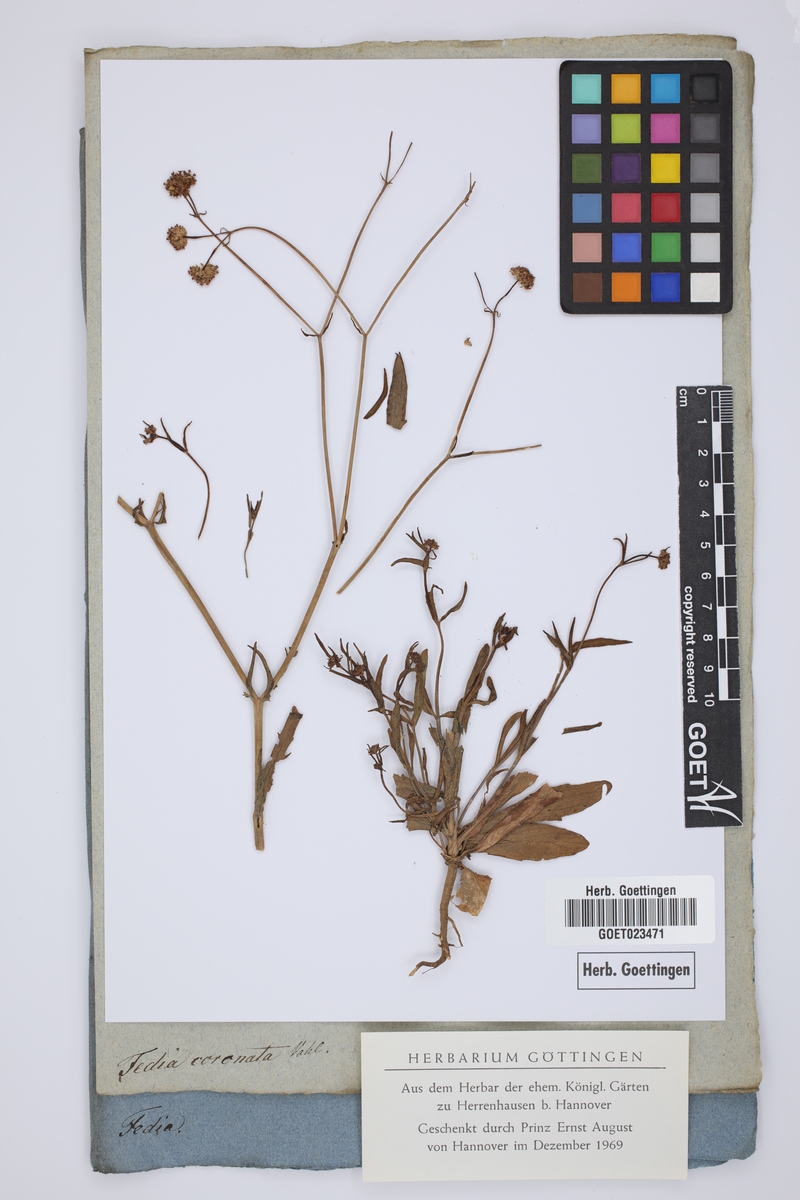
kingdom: Plantae
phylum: Tracheophyta
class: Magnoliopsida
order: Dipsacales
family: Caprifoliaceae
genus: Valerianella
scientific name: Valerianella coronata
